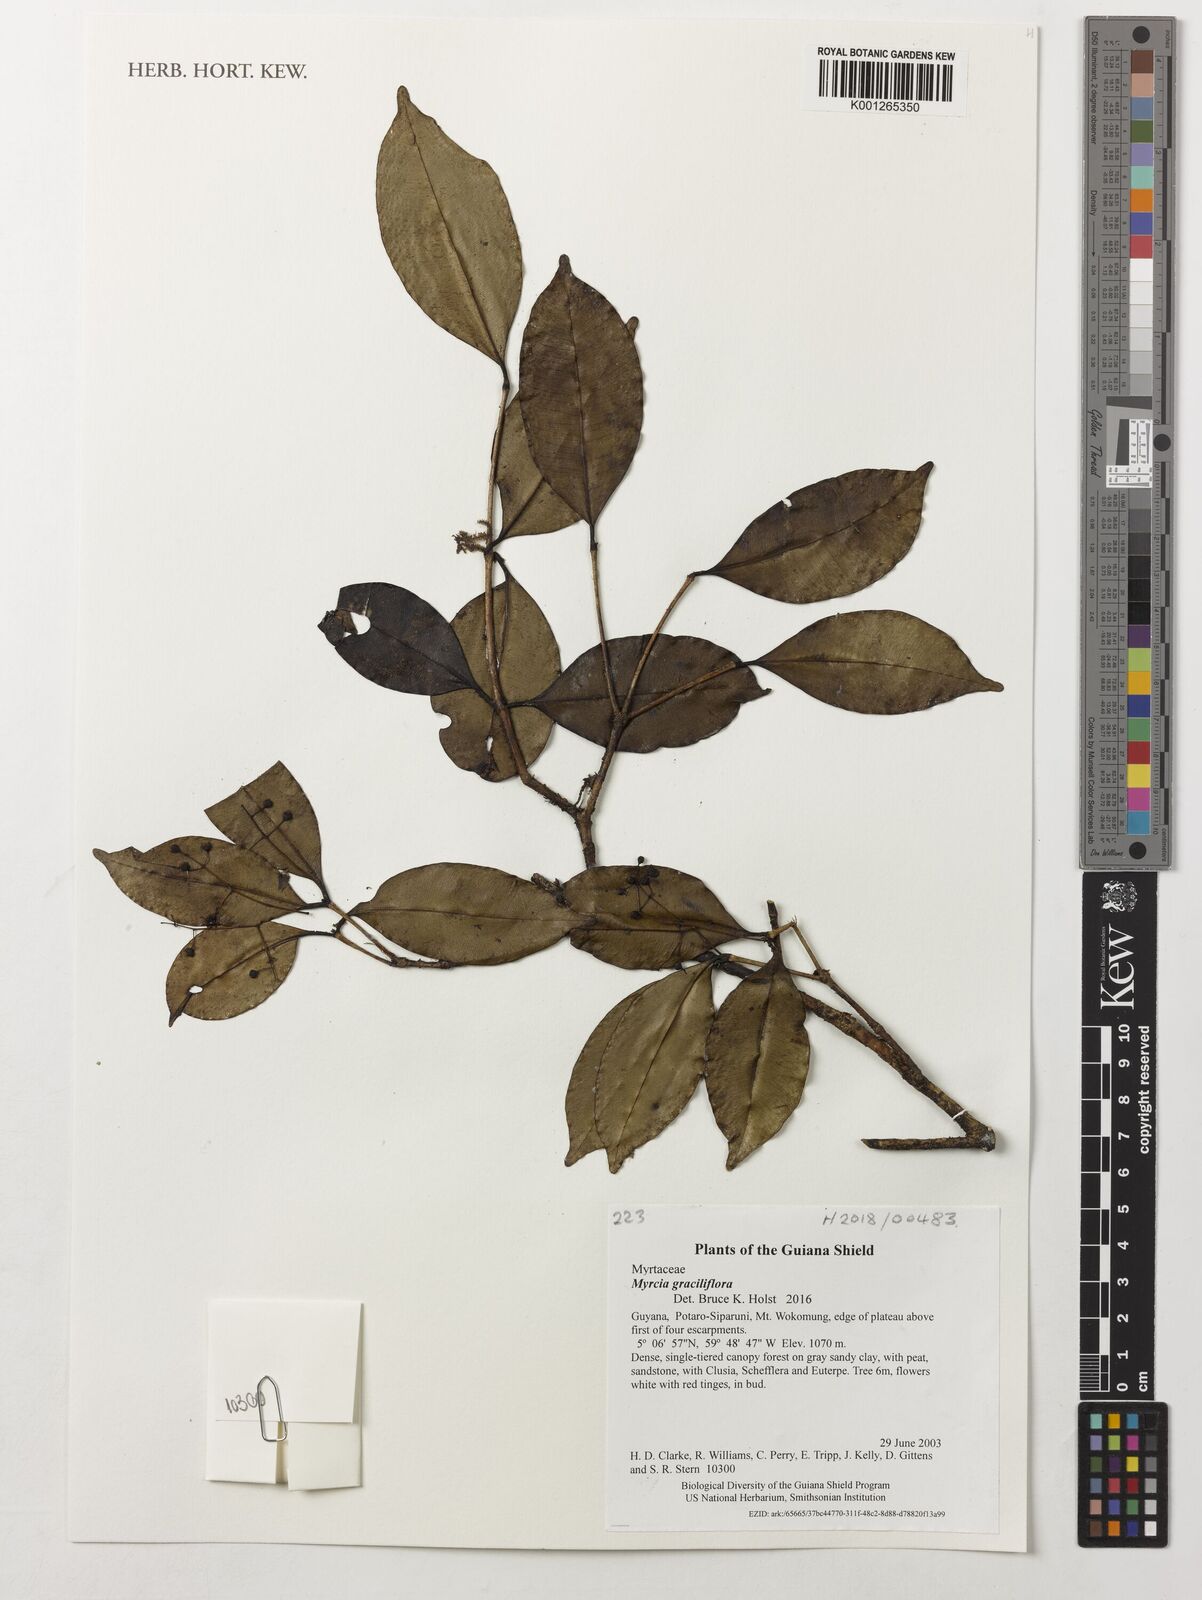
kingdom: Plantae
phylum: Tracheophyta
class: Magnoliopsida
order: Myrtales
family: Myrtaceae
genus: Myrcia
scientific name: Myrcia graciliflora
